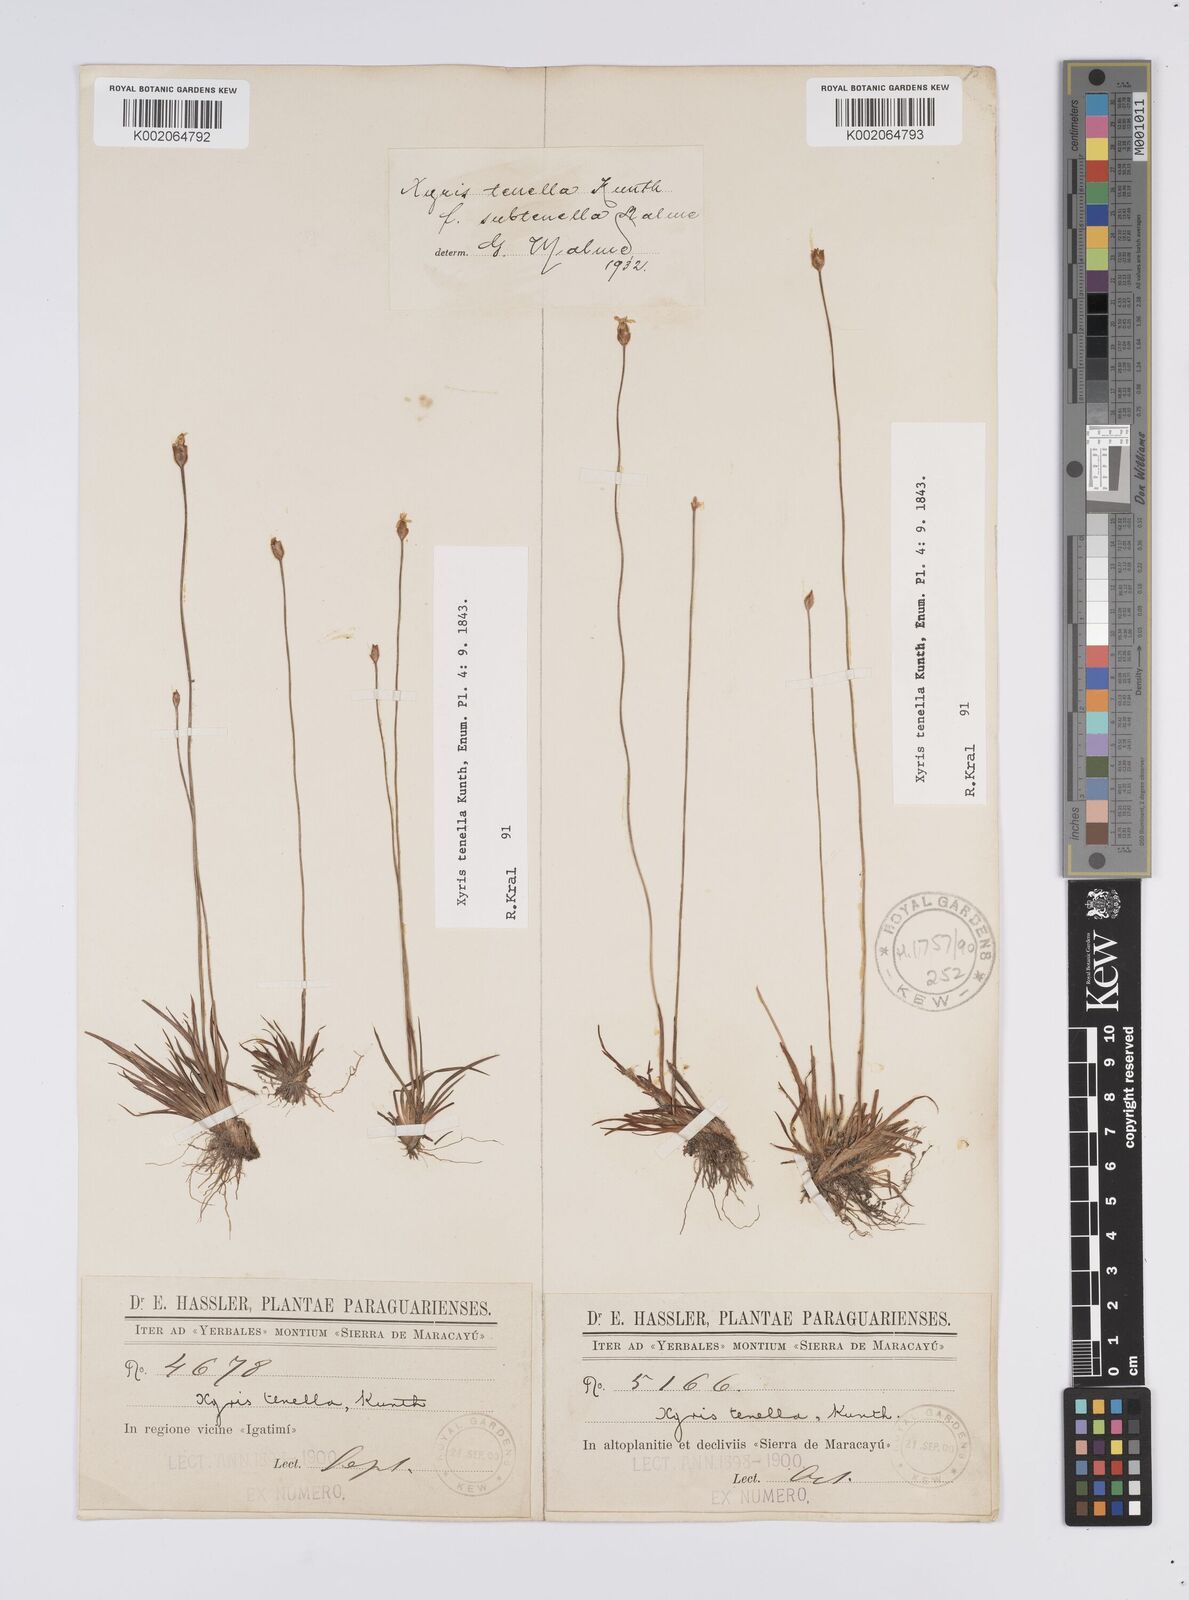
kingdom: Plantae
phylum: Tracheophyta
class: Liliopsida
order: Poales
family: Xyridaceae
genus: Xyris
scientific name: Xyris tenella
